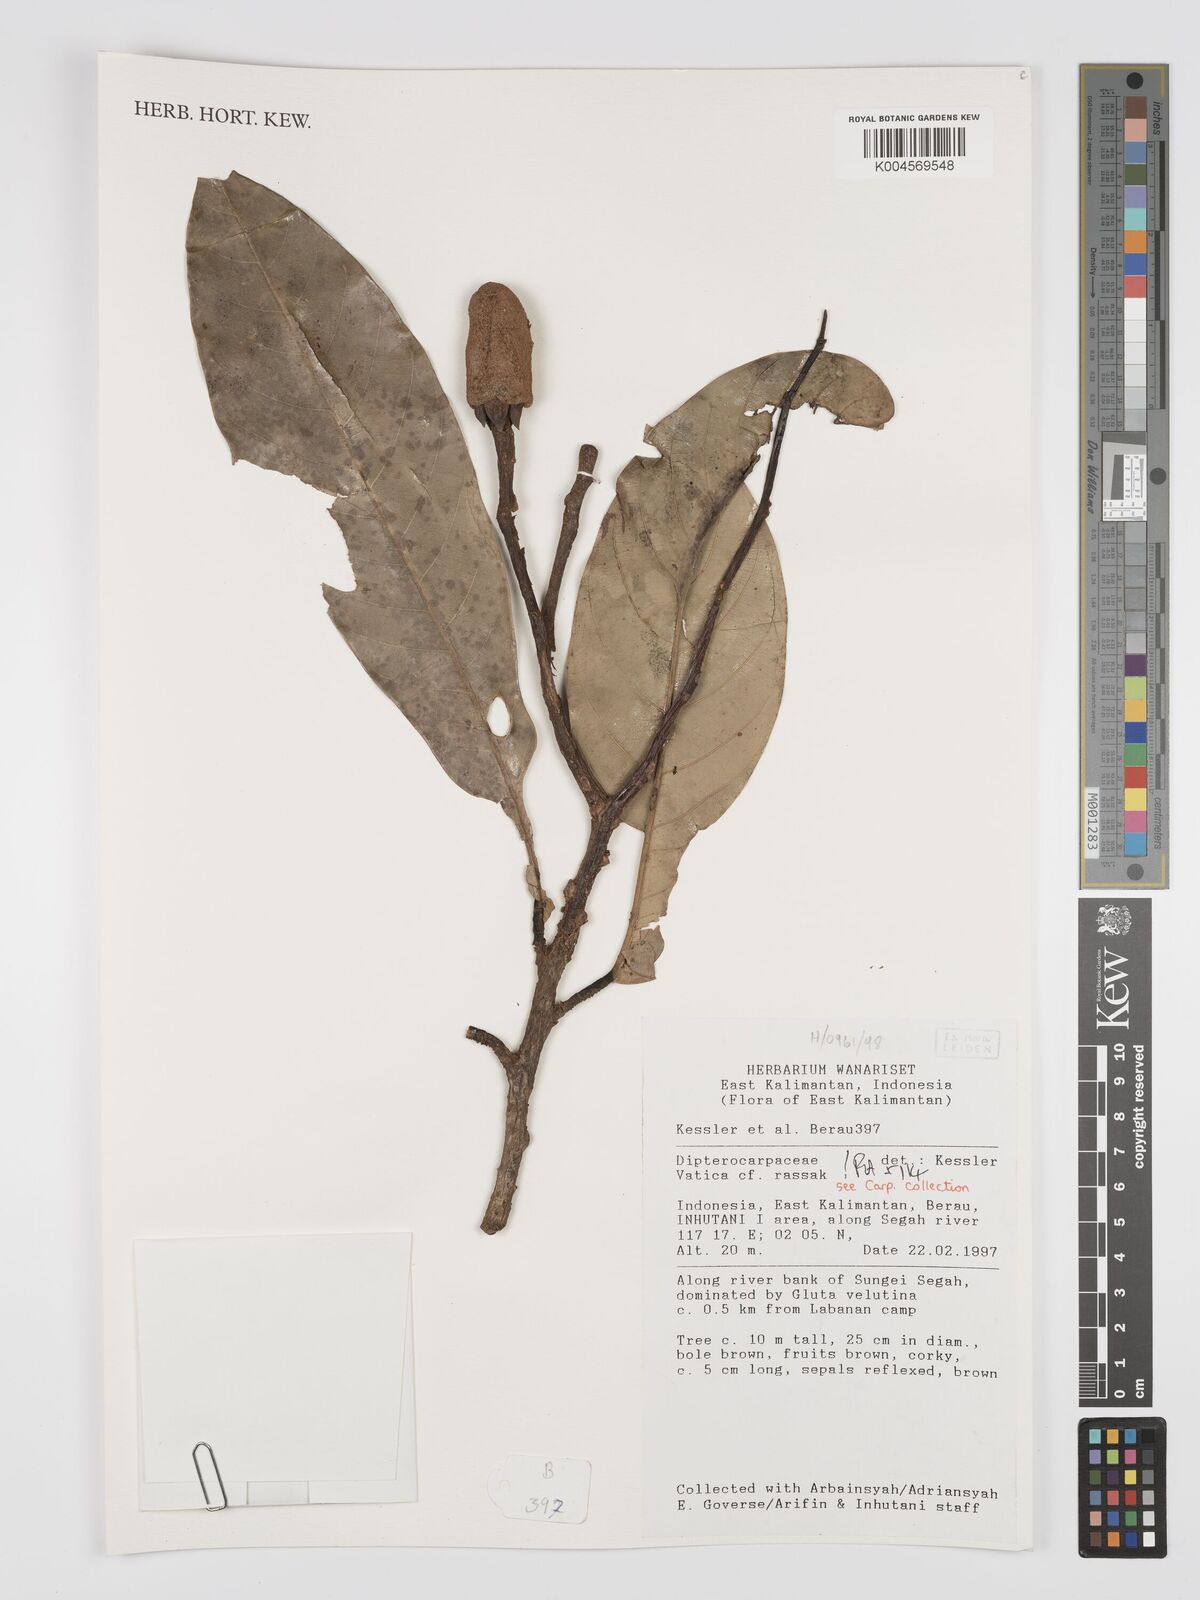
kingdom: Plantae
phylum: Tracheophyta
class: Magnoliopsida
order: Malvales
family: Dipterocarpaceae
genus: Vatica
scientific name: Vatica rassak
